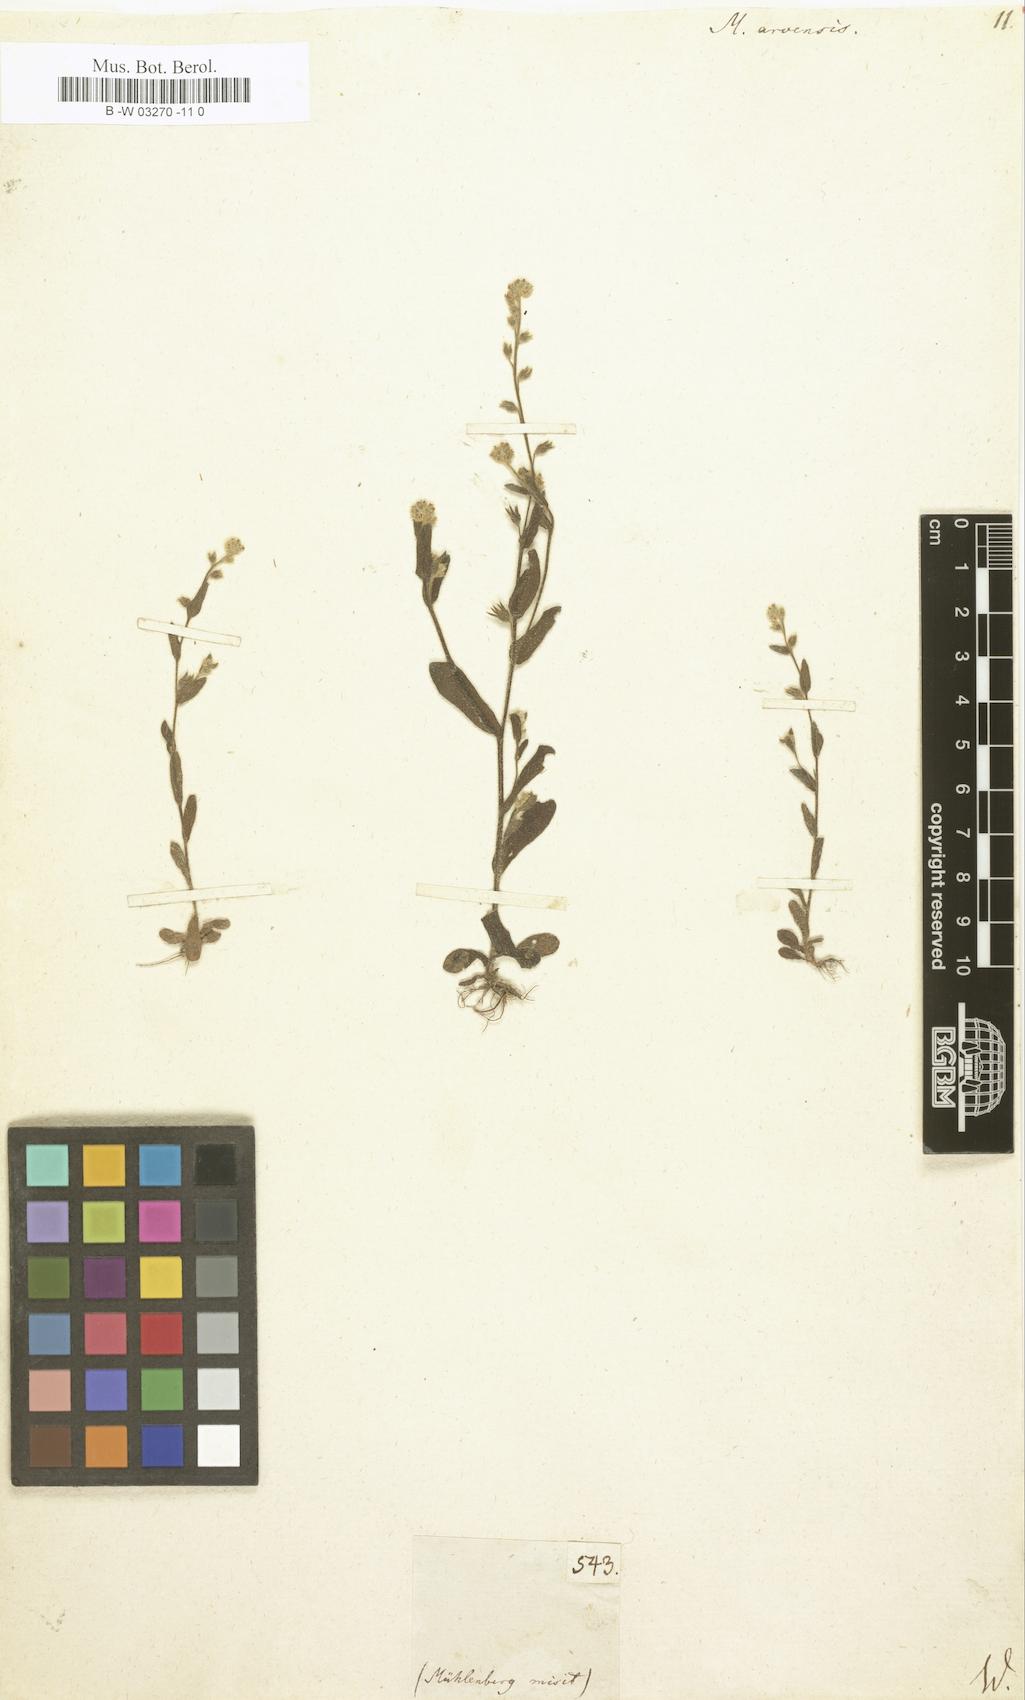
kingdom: Plantae
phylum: Tracheophyta
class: Magnoliopsida
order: Boraginales
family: Boraginaceae
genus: Myosotis
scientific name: Myosotis arvensis
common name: Field forget-me-not
